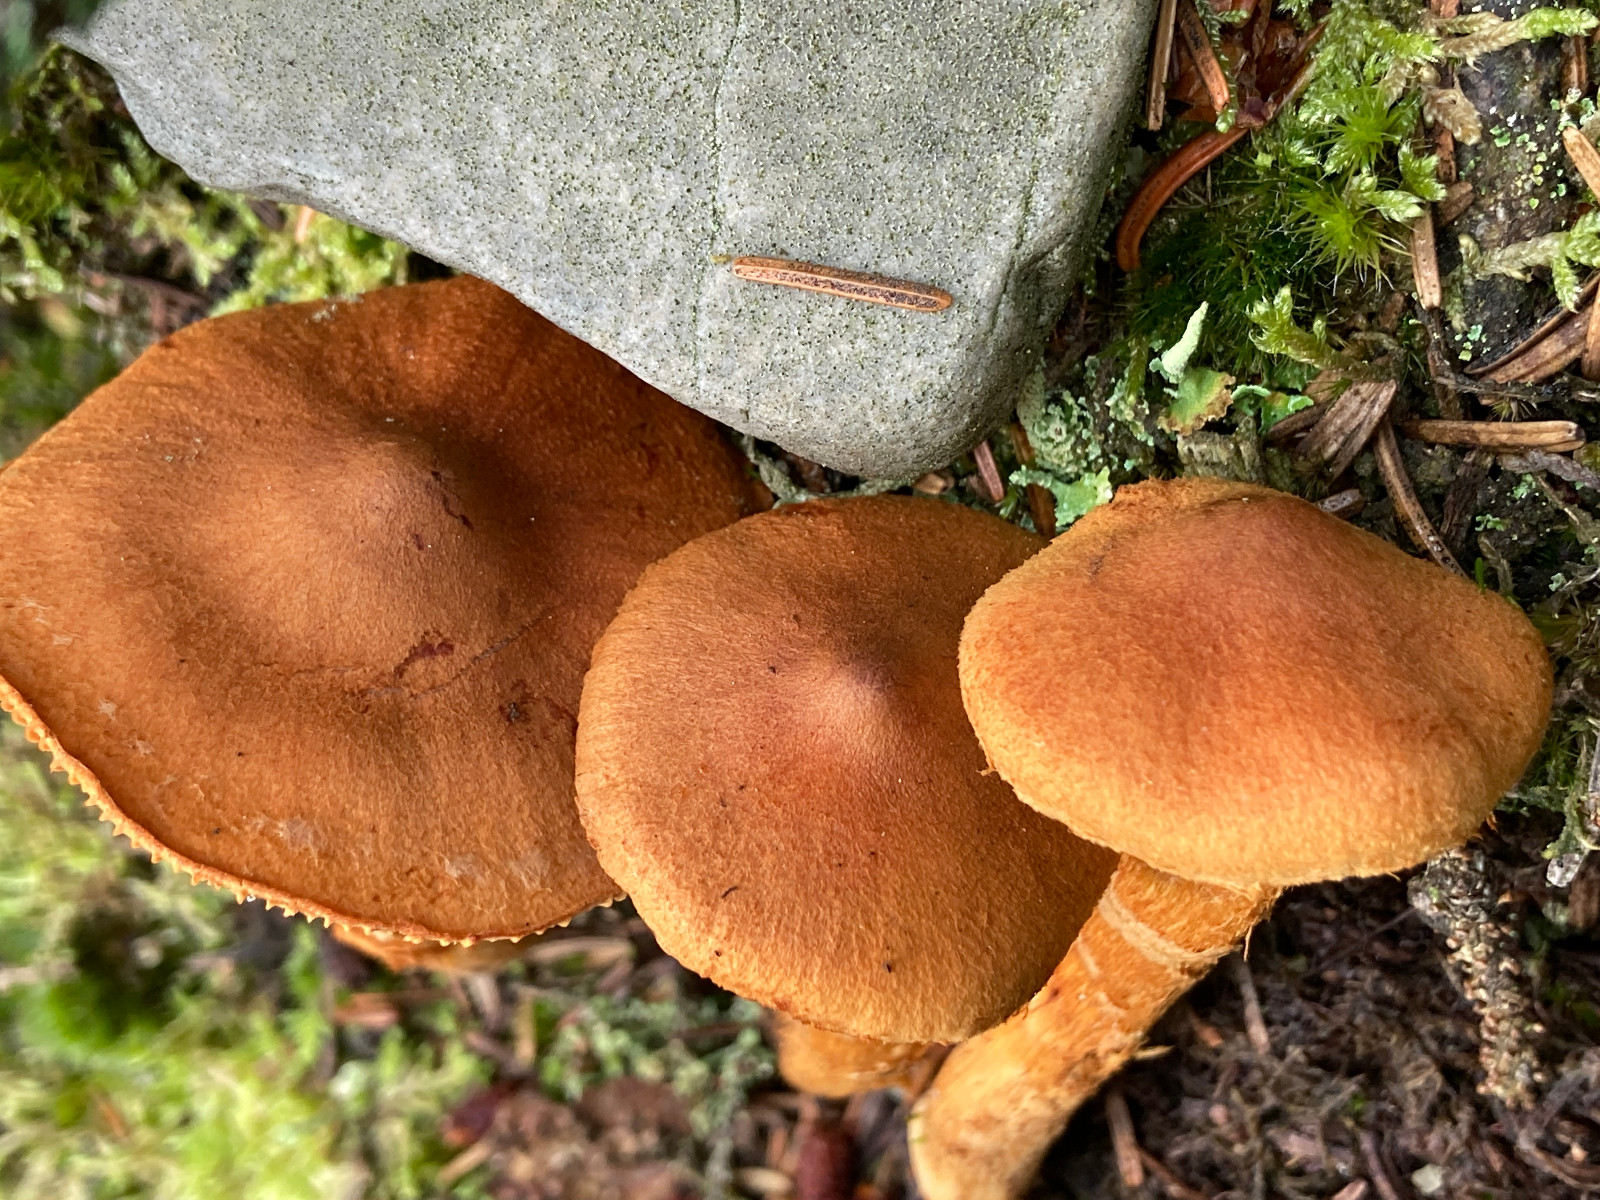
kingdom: Fungi
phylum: Basidiomycota
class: Agaricomycetes
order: Agaricales
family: Cortinariaceae
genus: Cortinarius
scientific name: Cortinarius rubellus
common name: puklet gift-slørhat
